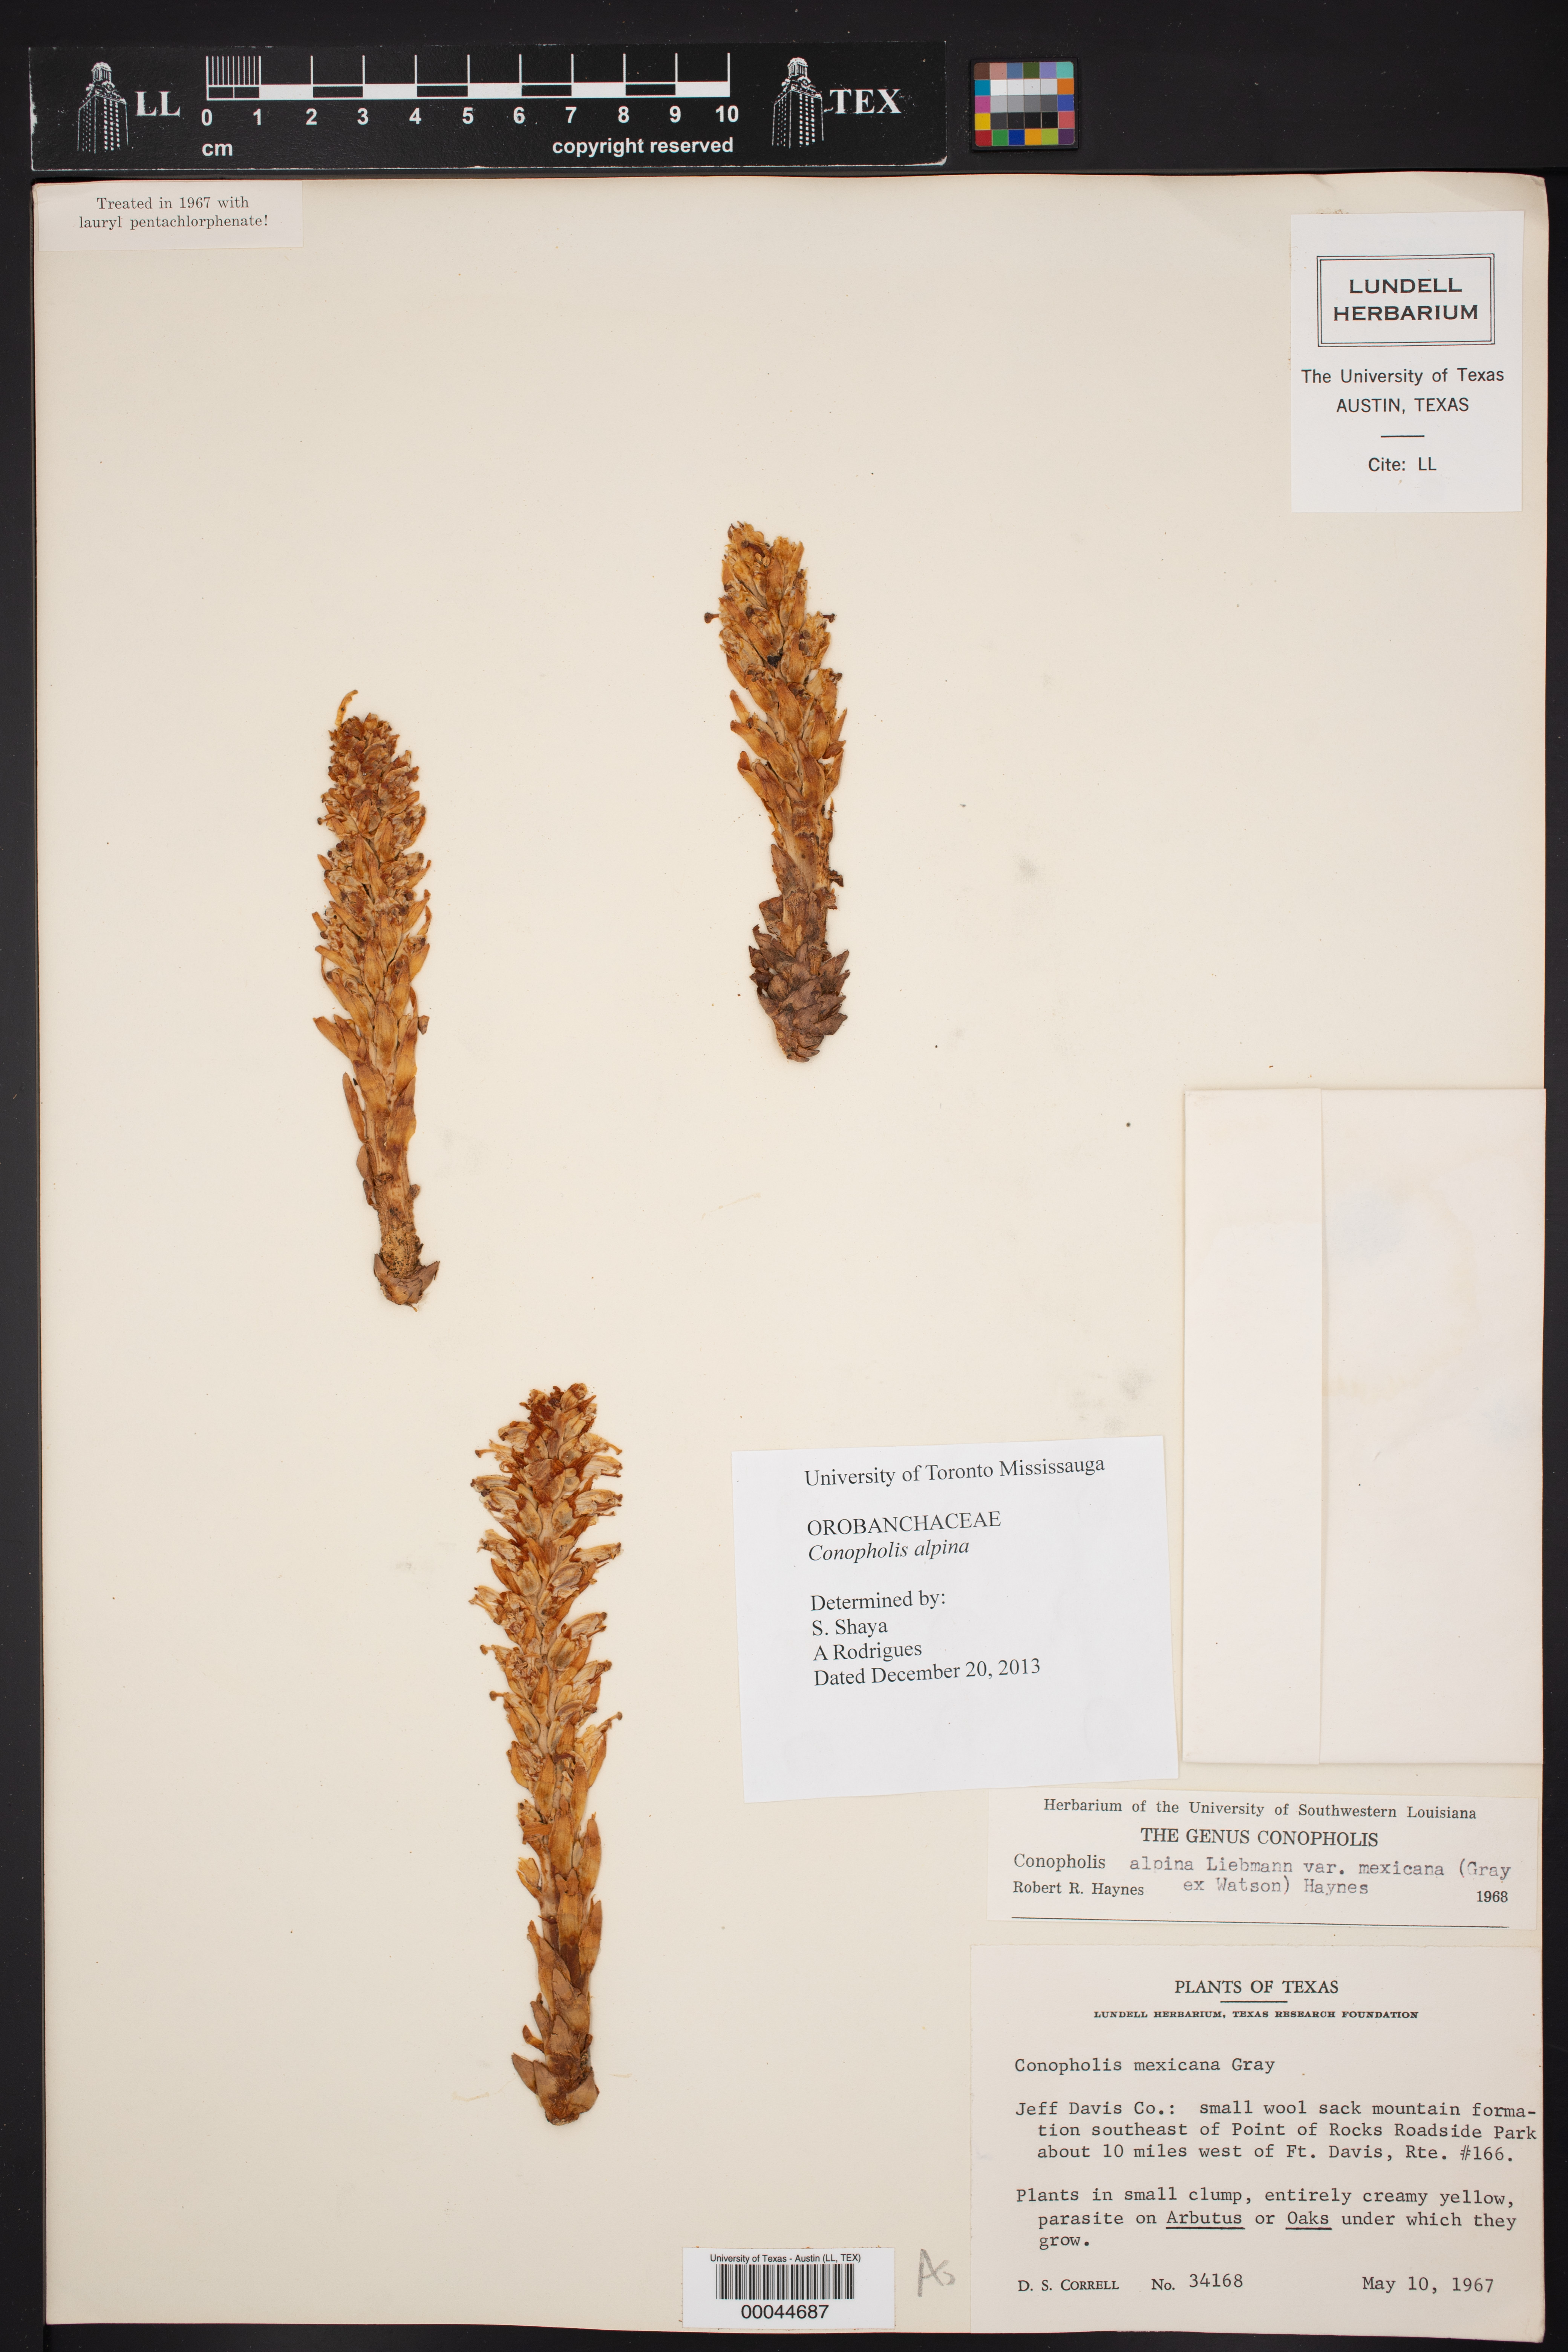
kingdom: Plantae
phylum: Tracheophyta
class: Magnoliopsida
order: Lamiales
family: Orobanchaceae
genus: Conopholis
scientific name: Conopholis alpina
